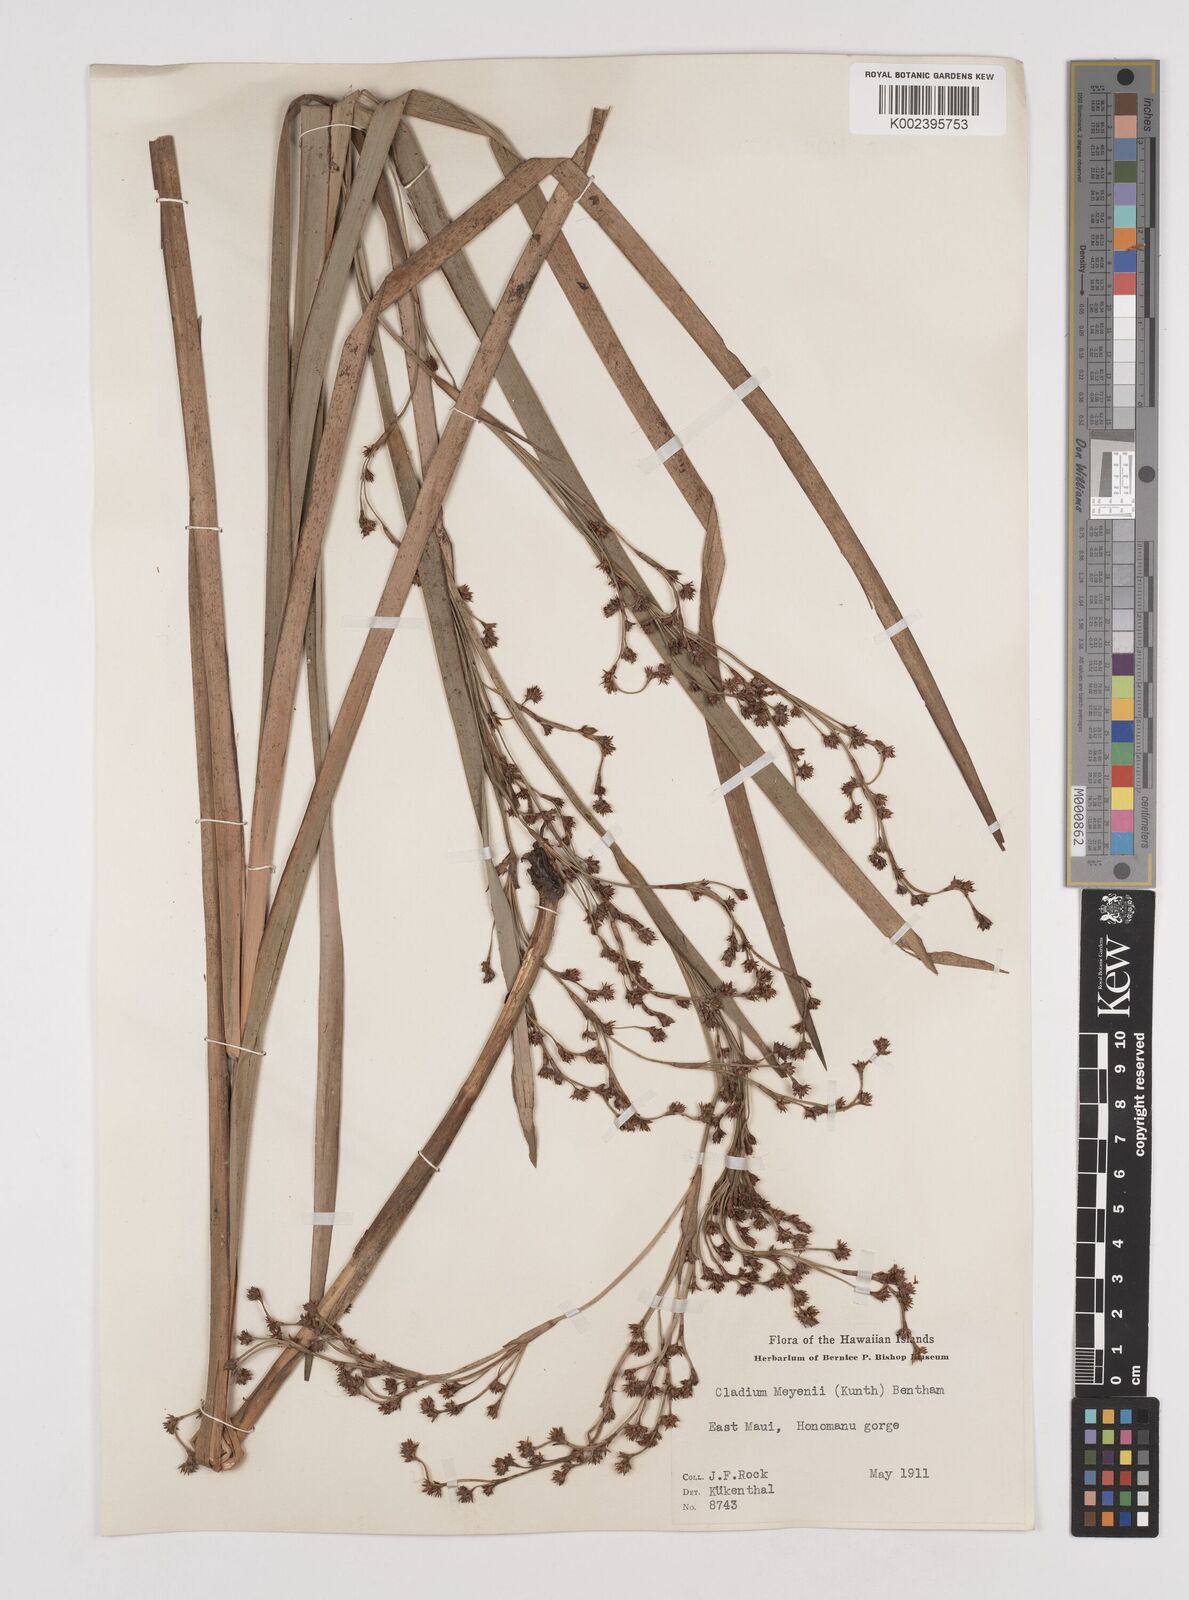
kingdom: Plantae
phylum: Tracheophyta
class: Liliopsida
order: Poales
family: Cyperaceae
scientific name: Cyperaceae
